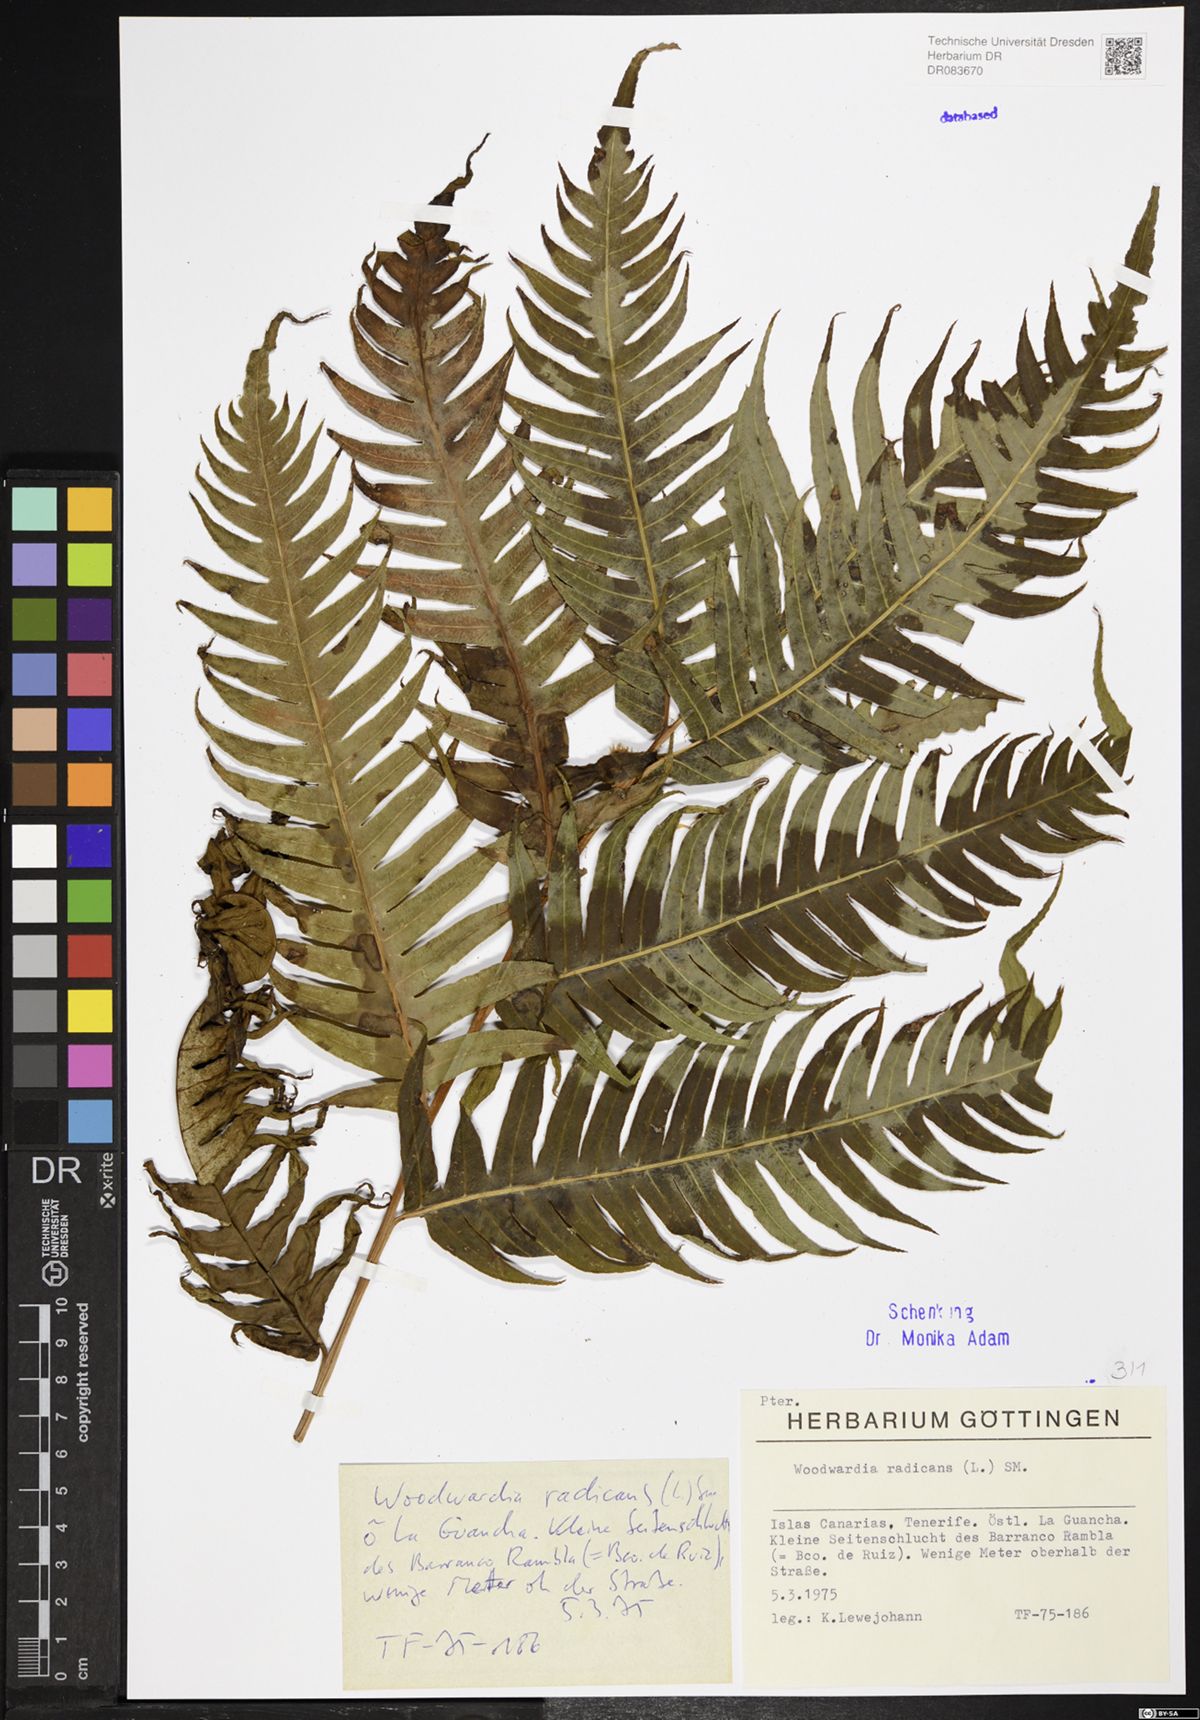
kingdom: Plantae
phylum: Tracheophyta
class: Polypodiopsida
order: Polypodiales
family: Blechnaceae
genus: Woodwardia
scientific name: Woodwardia radicans
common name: Rooting chainfern
